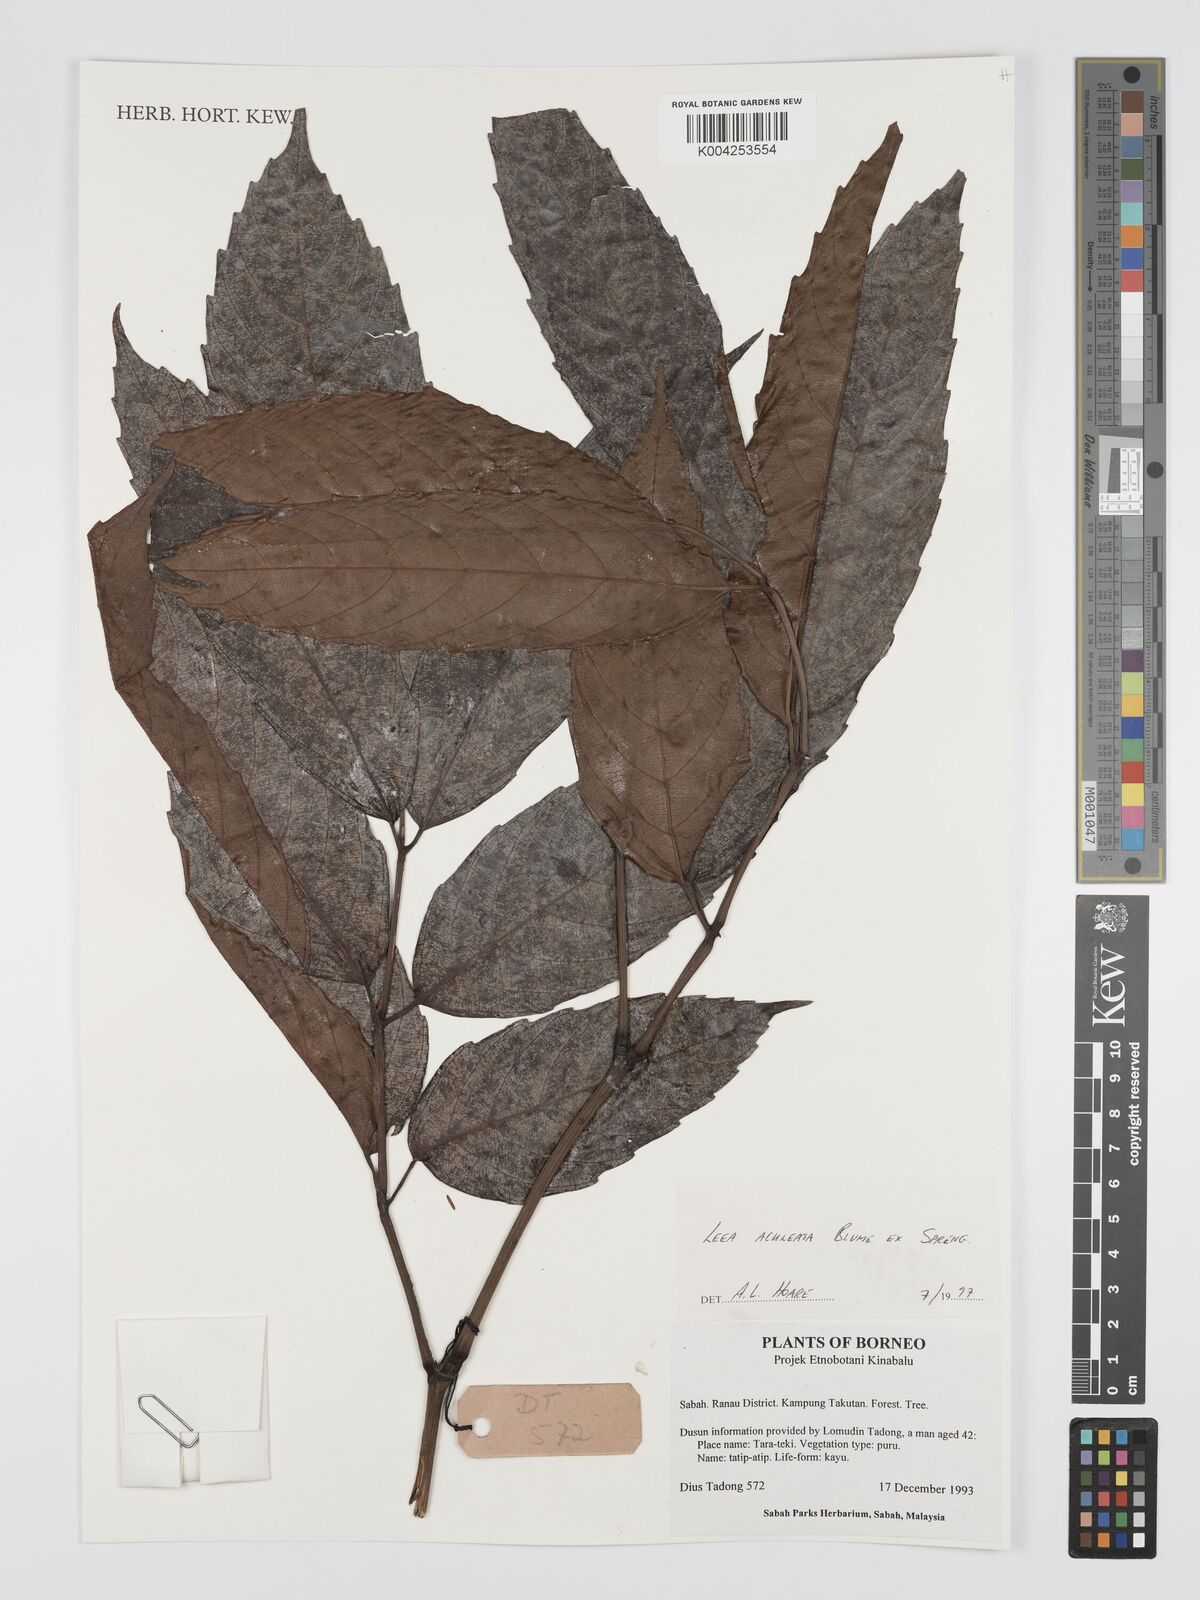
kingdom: Plantae
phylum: Tracheophyta
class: Magnoliopsida
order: Vitales
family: Vitaceae
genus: Leea
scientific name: Leea aculeata
